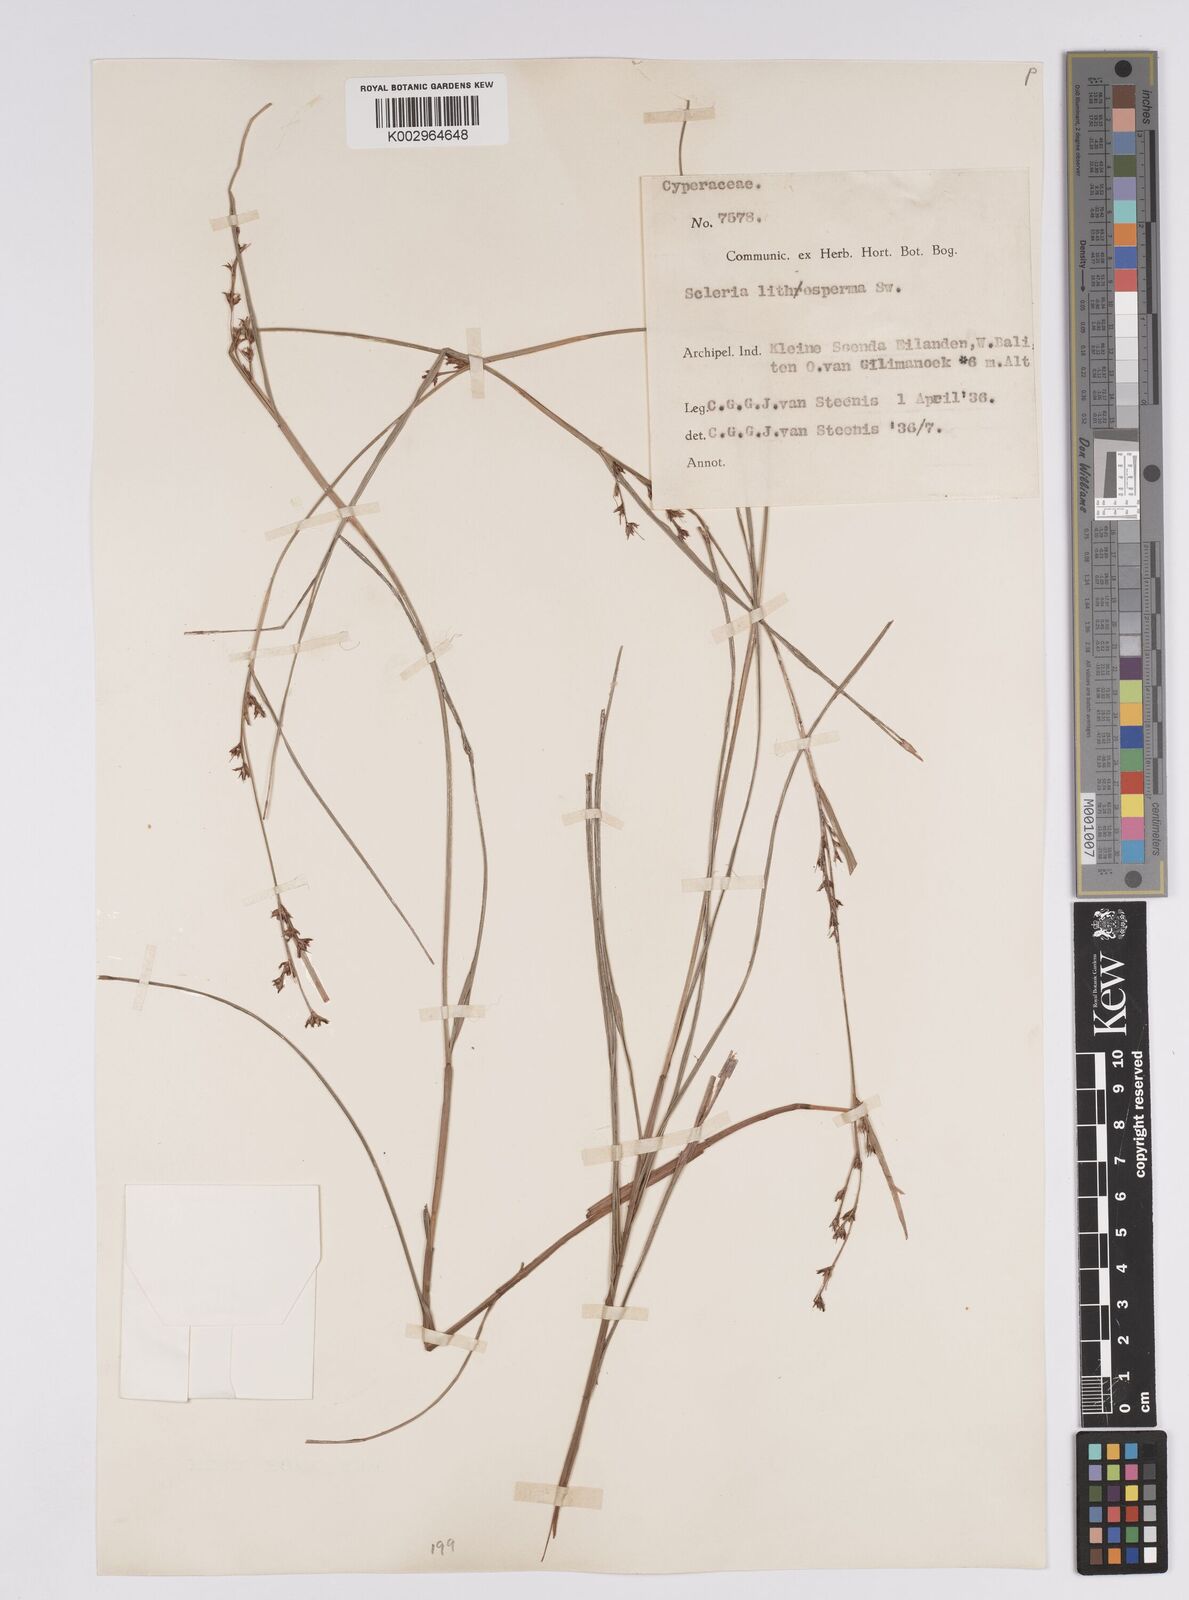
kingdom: Plantae
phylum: Tracheophyta
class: Liliopsida
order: Poales
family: Cyperaceae
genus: Scleria
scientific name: Scleria lithosperma
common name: Florida keys nut-rush
